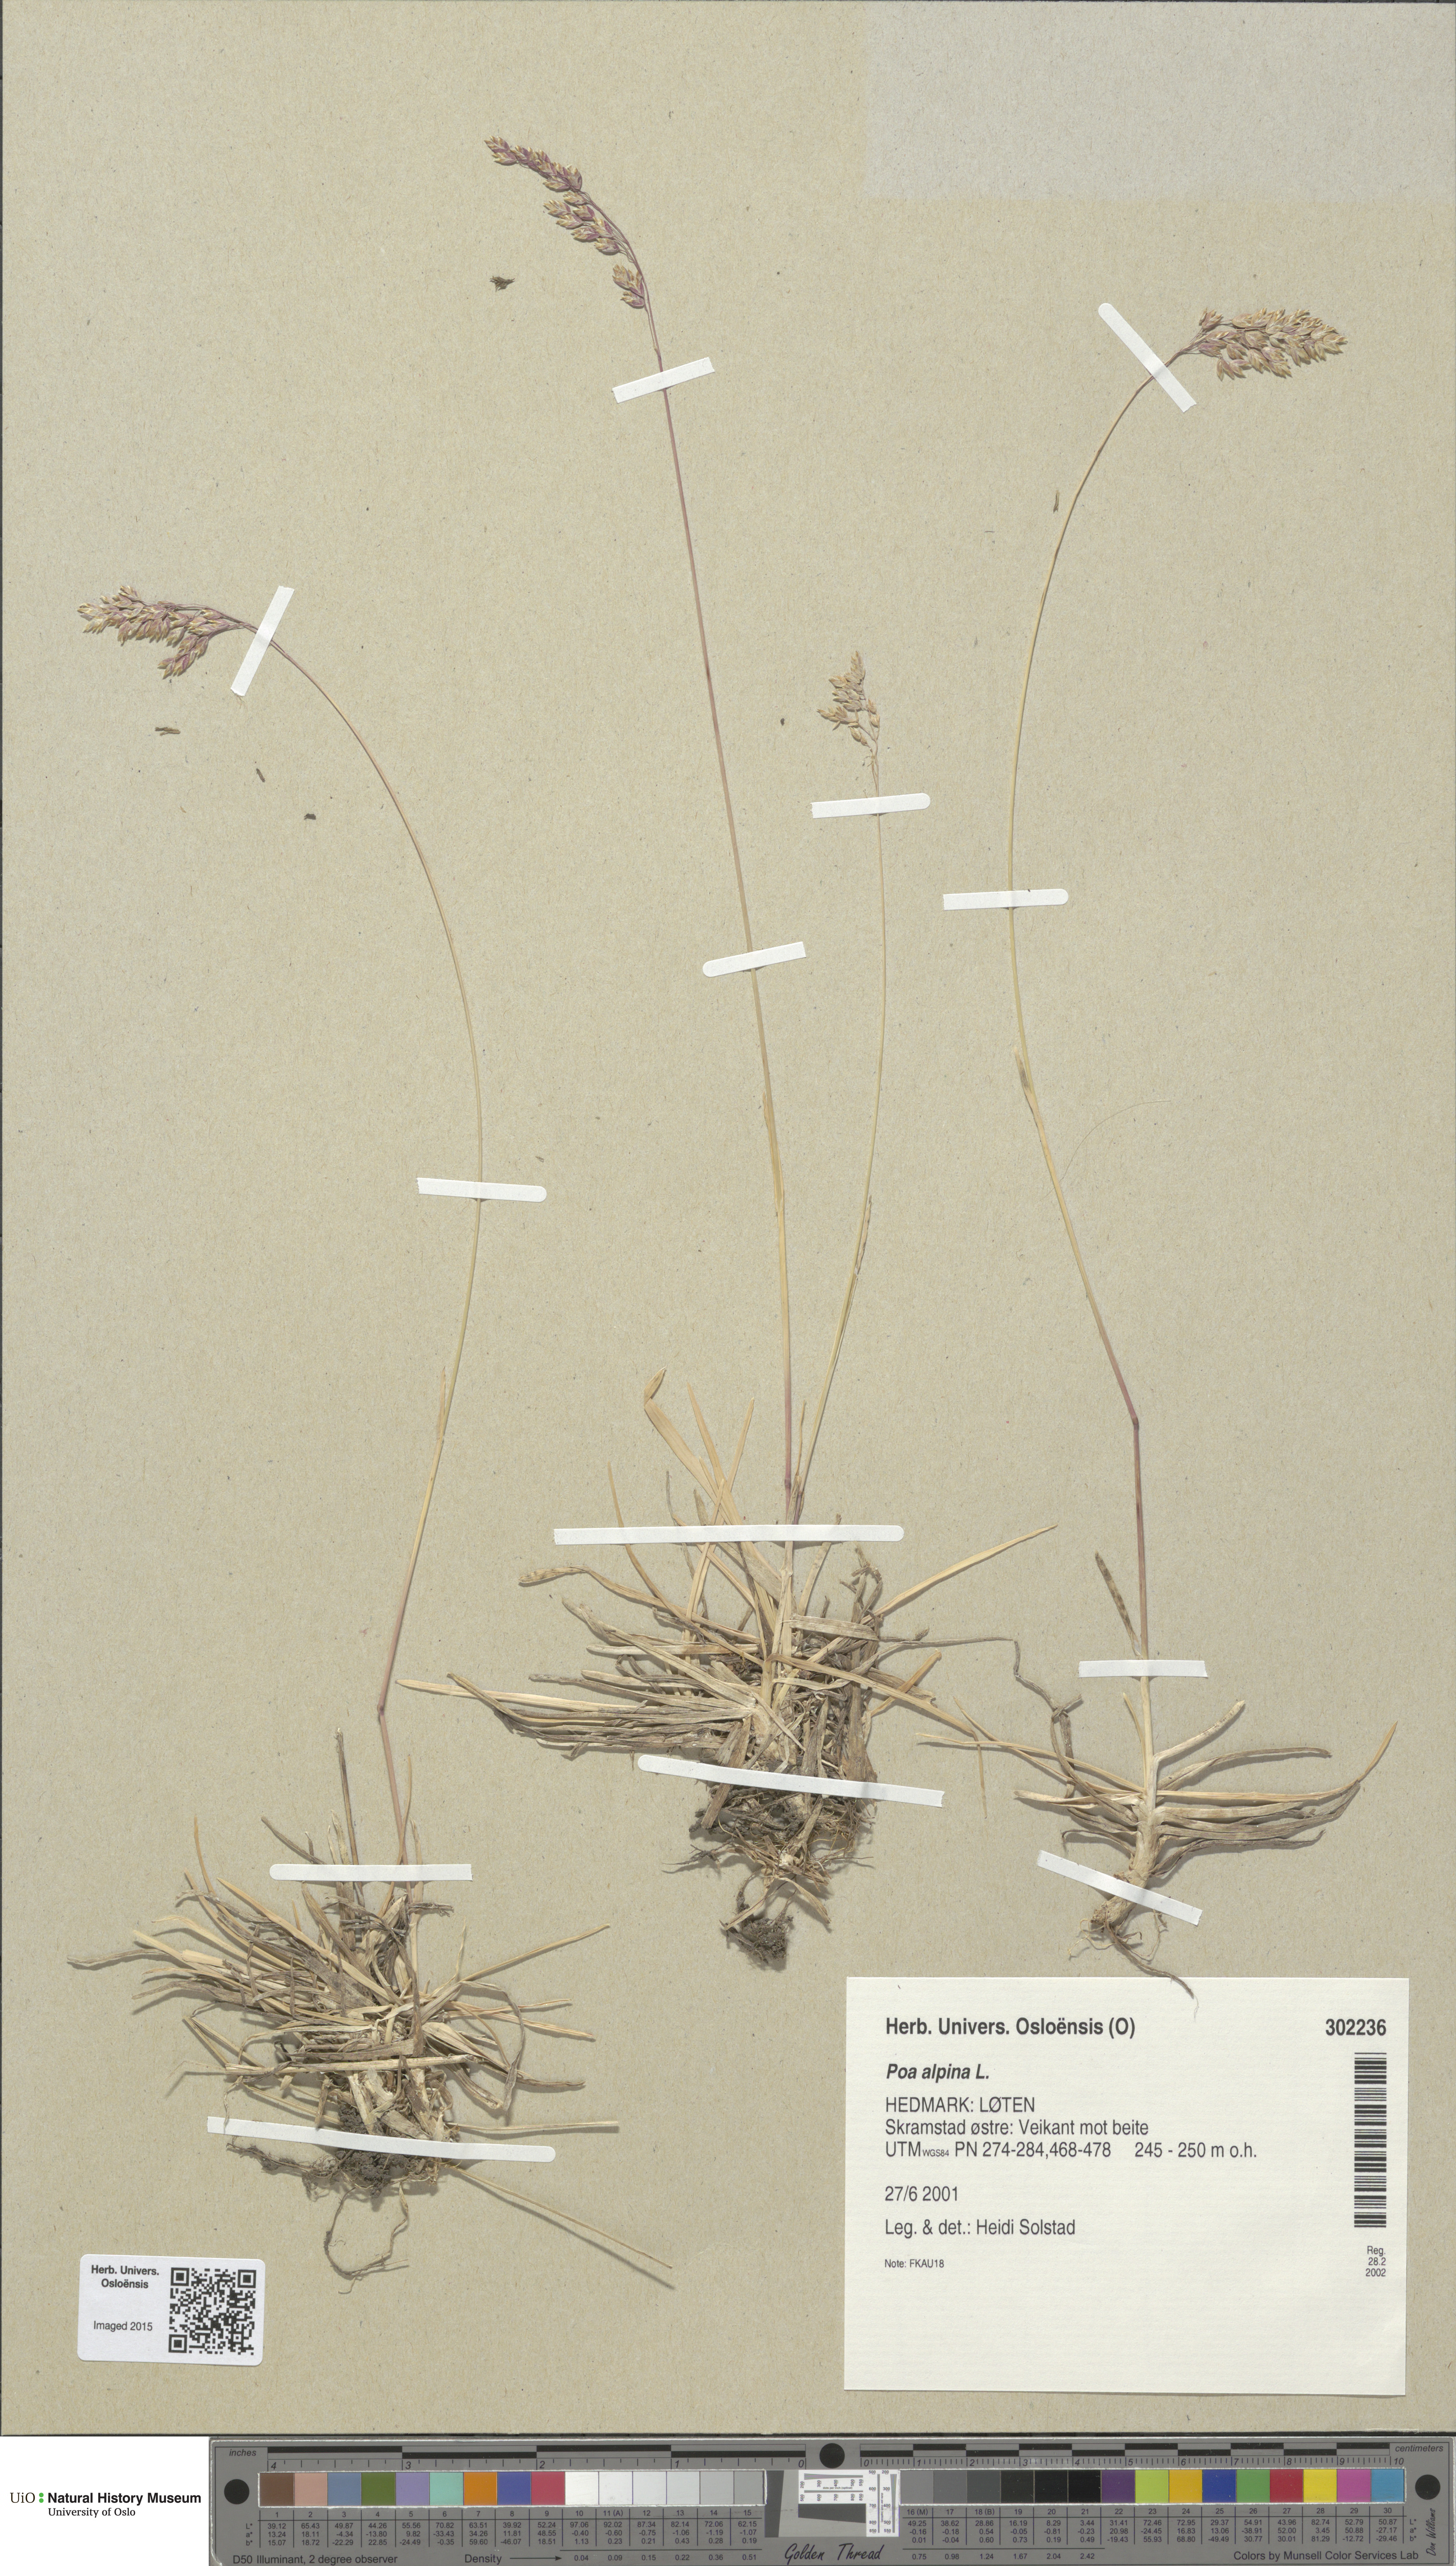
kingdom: Plantae
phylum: Tracheophyta
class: Liliopsida
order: Poales
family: Poaceae
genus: Poa
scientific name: Poa alpina
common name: Alpine bluegrass
